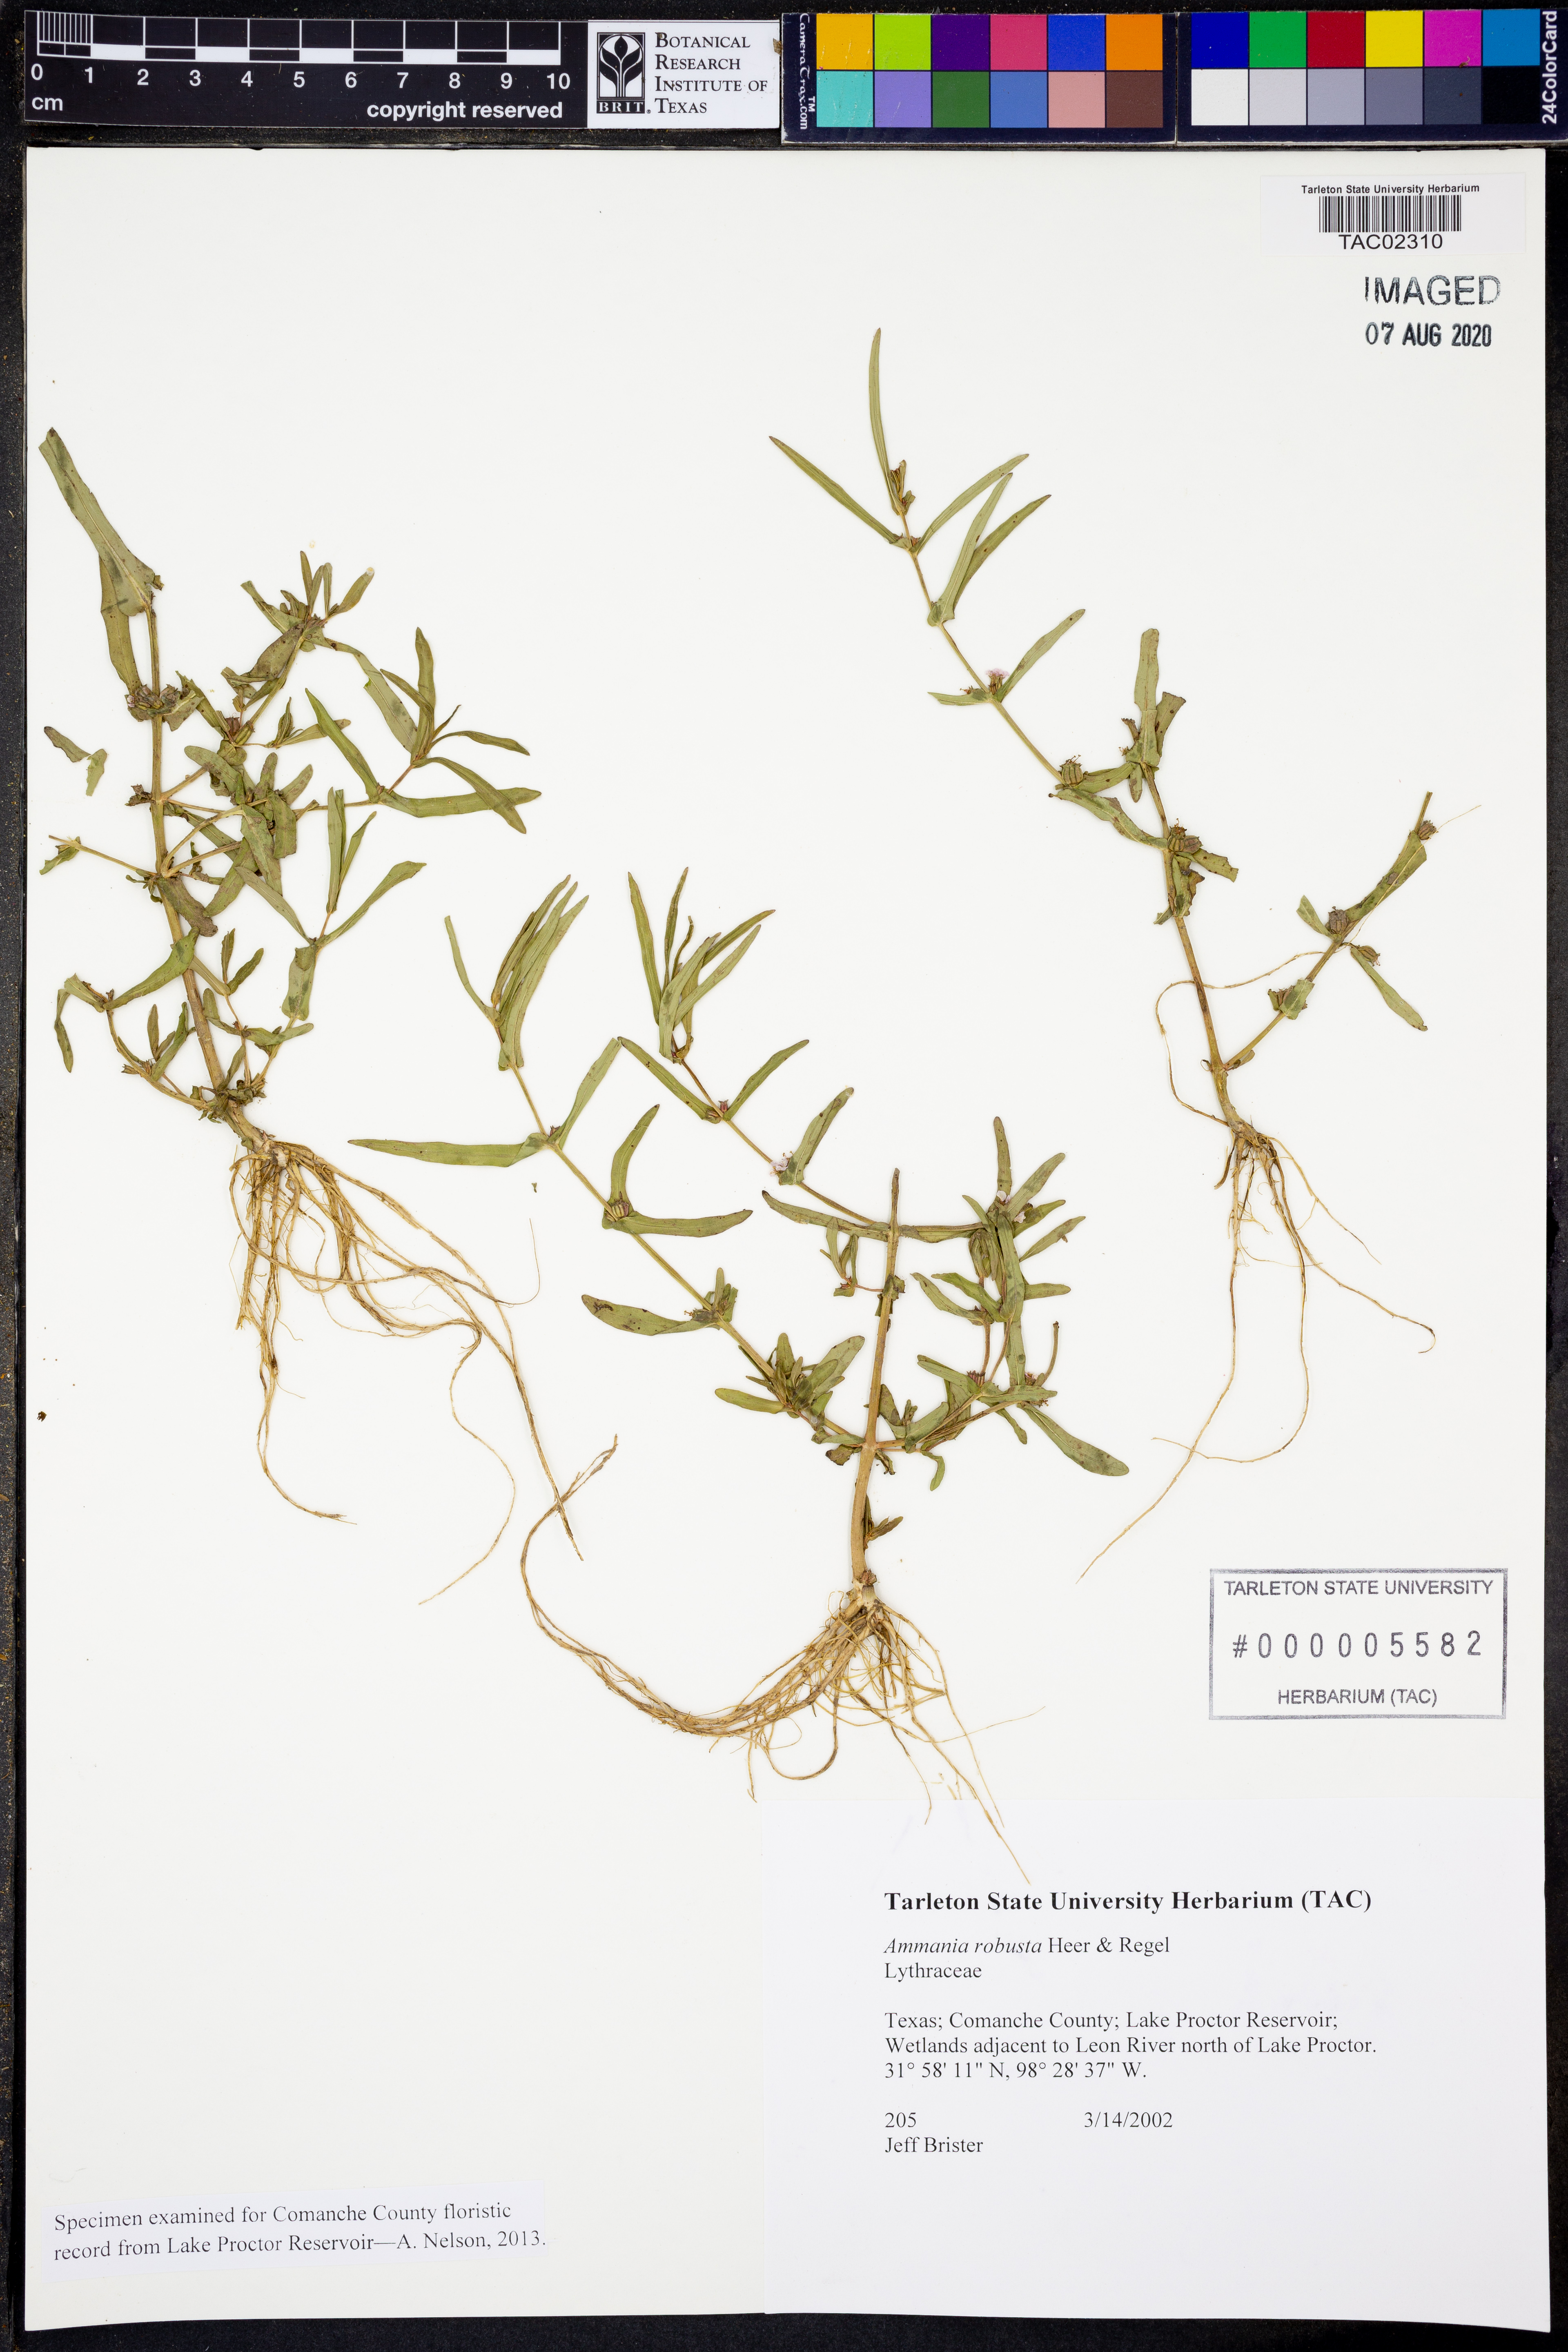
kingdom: Plantae
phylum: Tracheophyta
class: Magnoliopsida
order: Myrtales
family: Lythraceae
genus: Ammannia
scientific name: Ammannia robusta
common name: Grand ammannia
